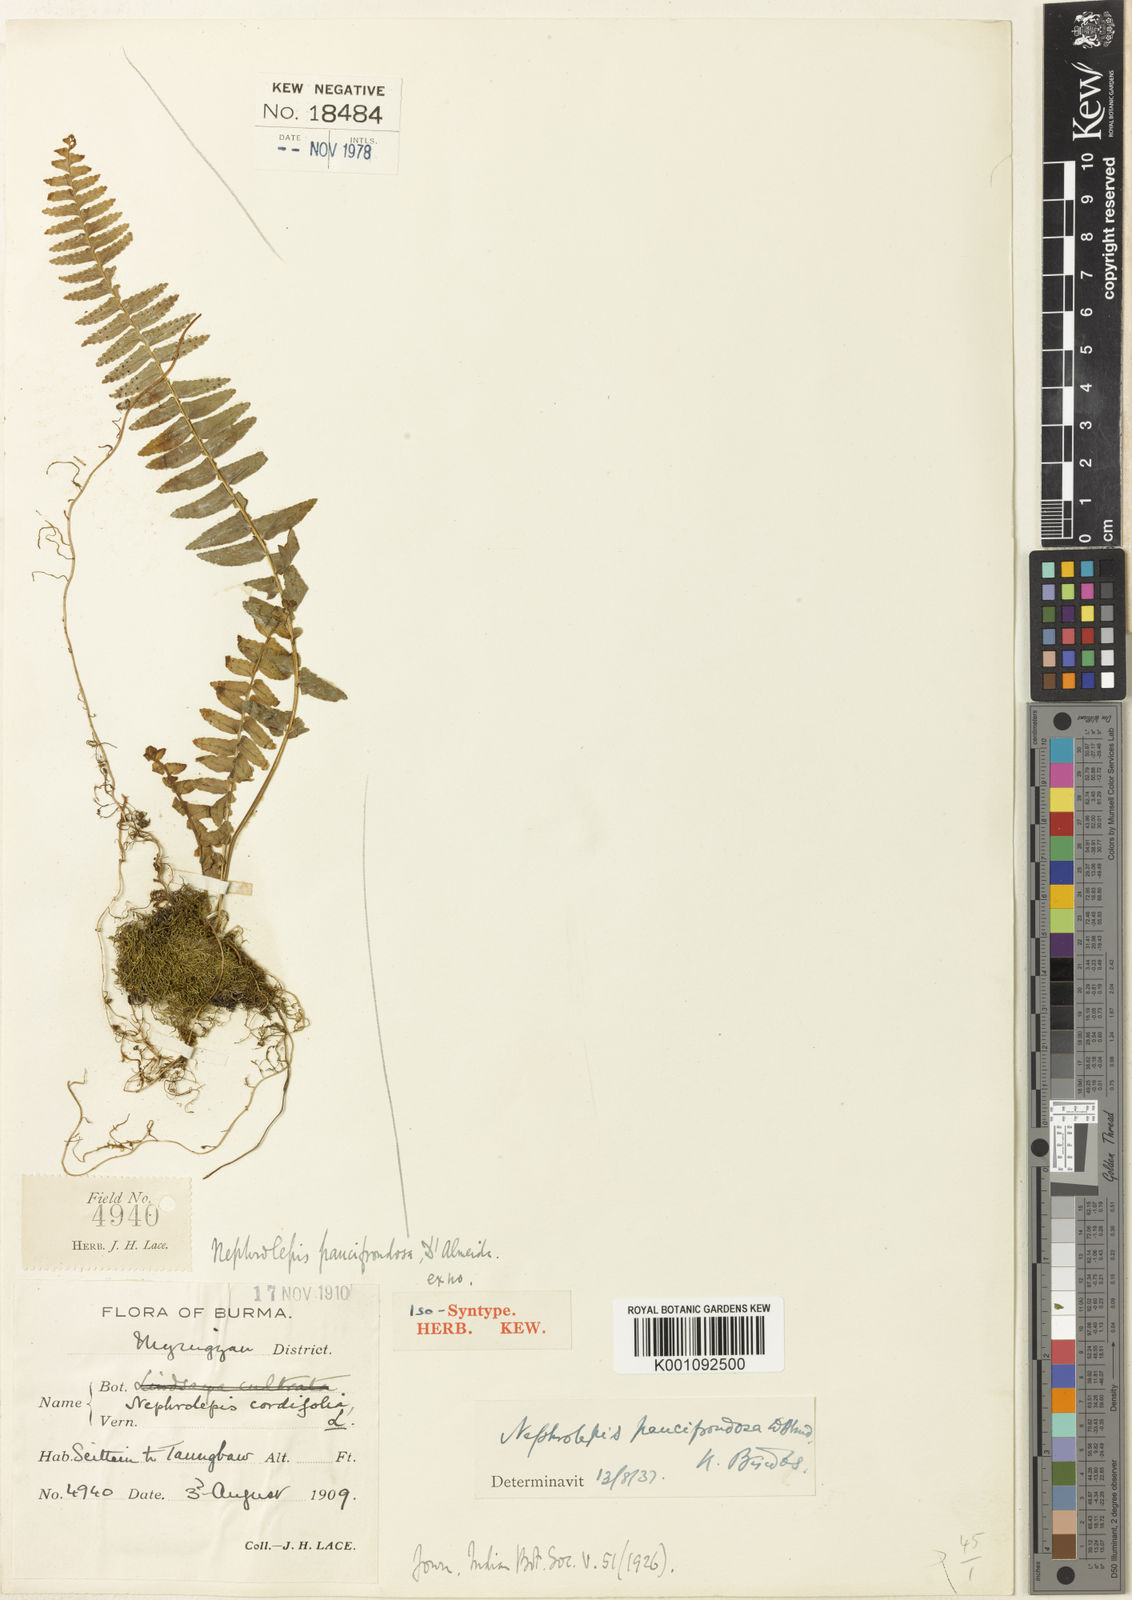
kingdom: Plantae
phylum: Tracheophyta
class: Polypodiopsida
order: Polypodiales
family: Nephrolepidaceae
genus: Nephrolepis
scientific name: Nephrolepis delicatula
